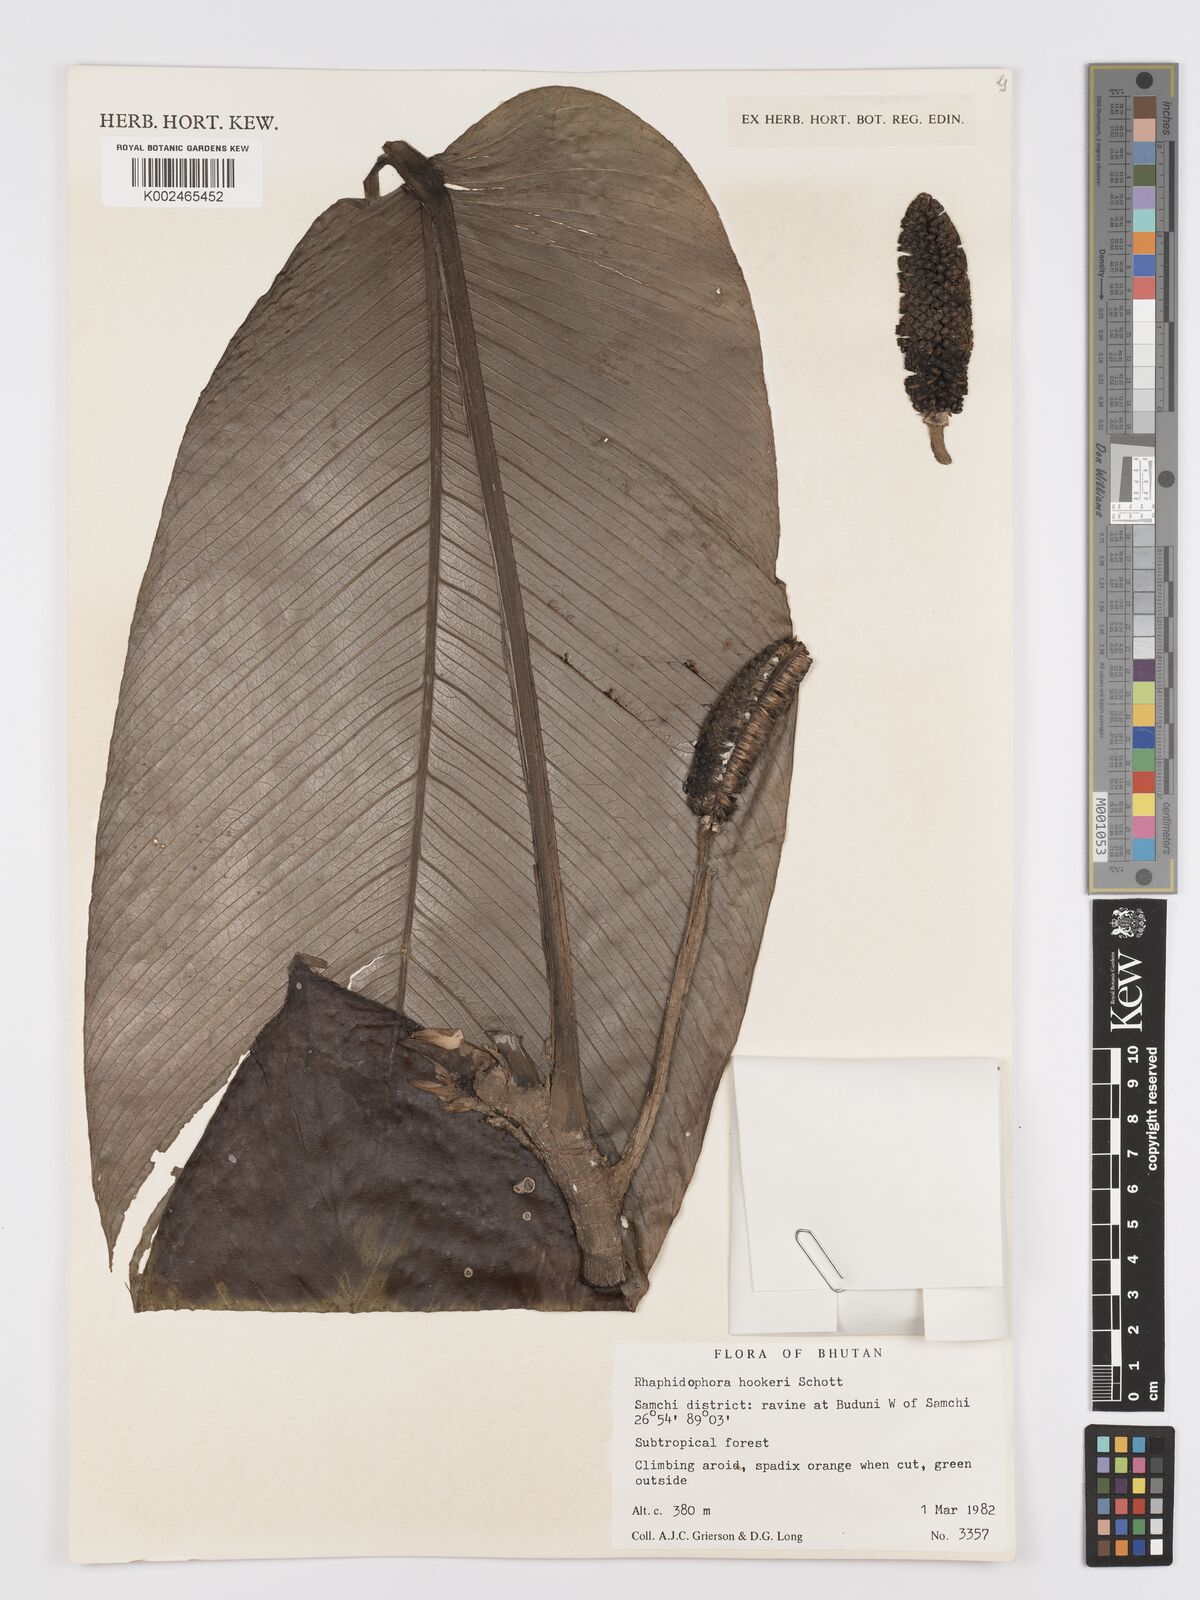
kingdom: Plantae
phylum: Tracheophyta
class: Liliopsida
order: Alismatales
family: Araceae
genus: Rhaphidophora
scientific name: Rhaphidophora hookeri
